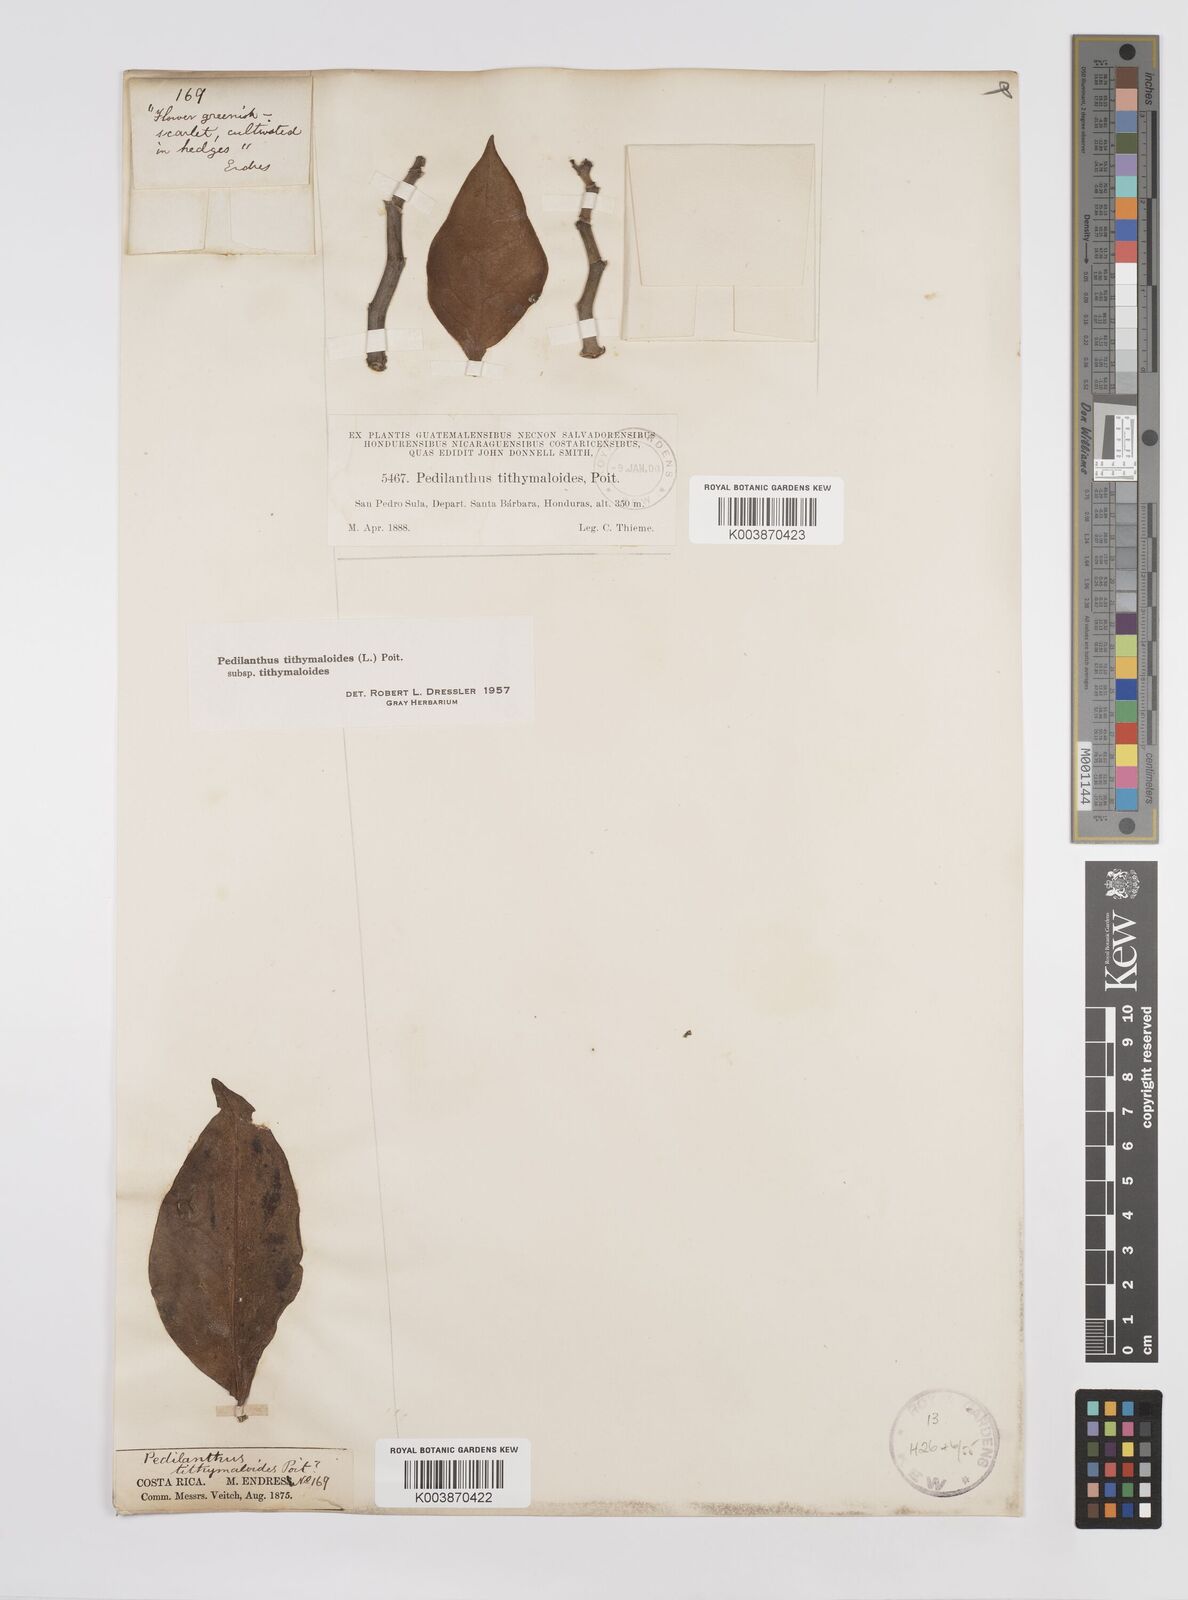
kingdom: Plantae
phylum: Tracheophyta
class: Magnoliopsida
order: Malpighiales
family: Euphorbiaceae
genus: Euphorbia
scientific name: Euphorbia tithymaloides
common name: Slipperplant
